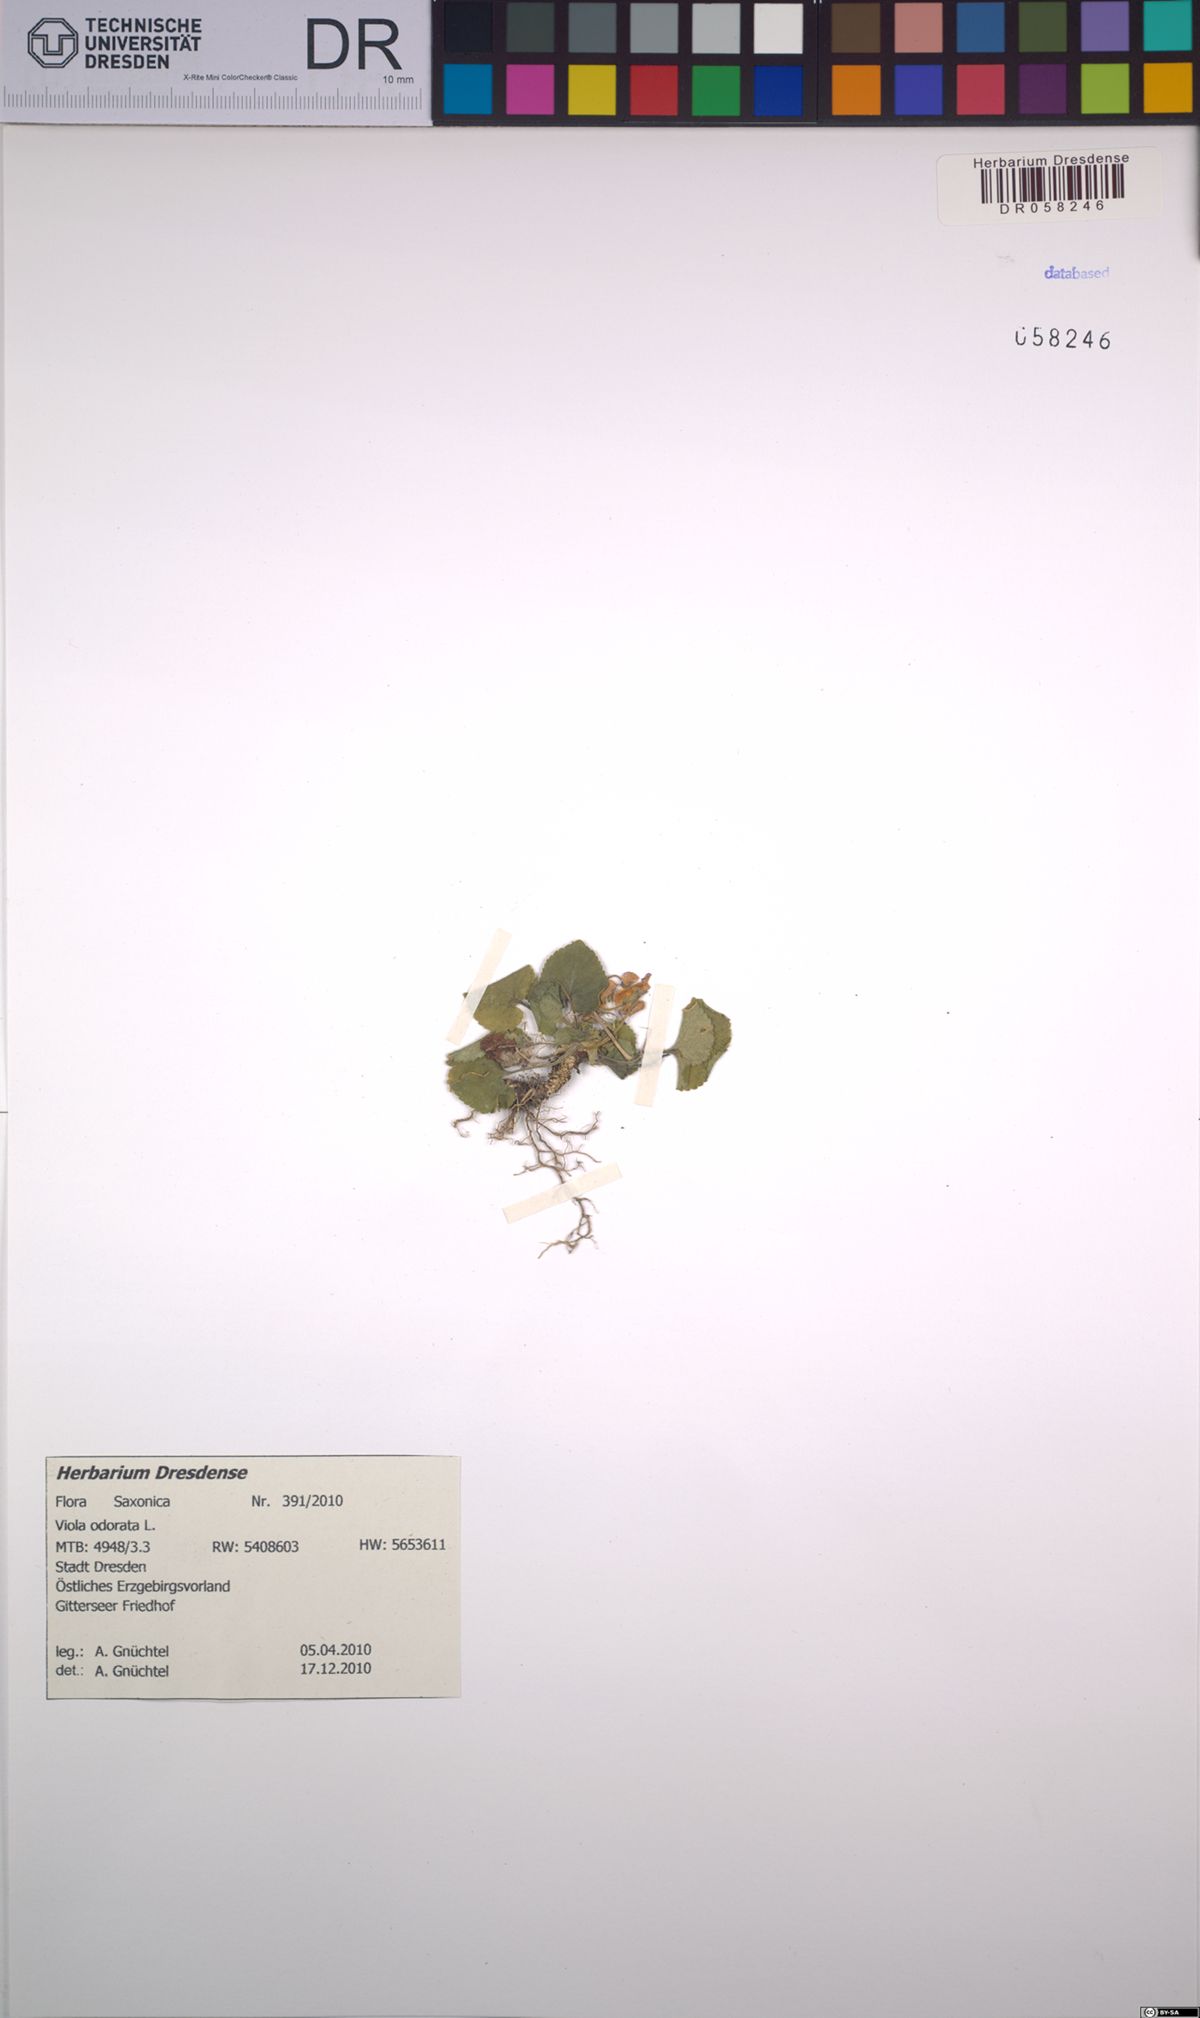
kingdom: Plantae
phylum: Tracheophyta
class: Magnoliopsida
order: Malpighiales
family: Violaceae
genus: Viola
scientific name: Viola odorata
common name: Sweet violet
